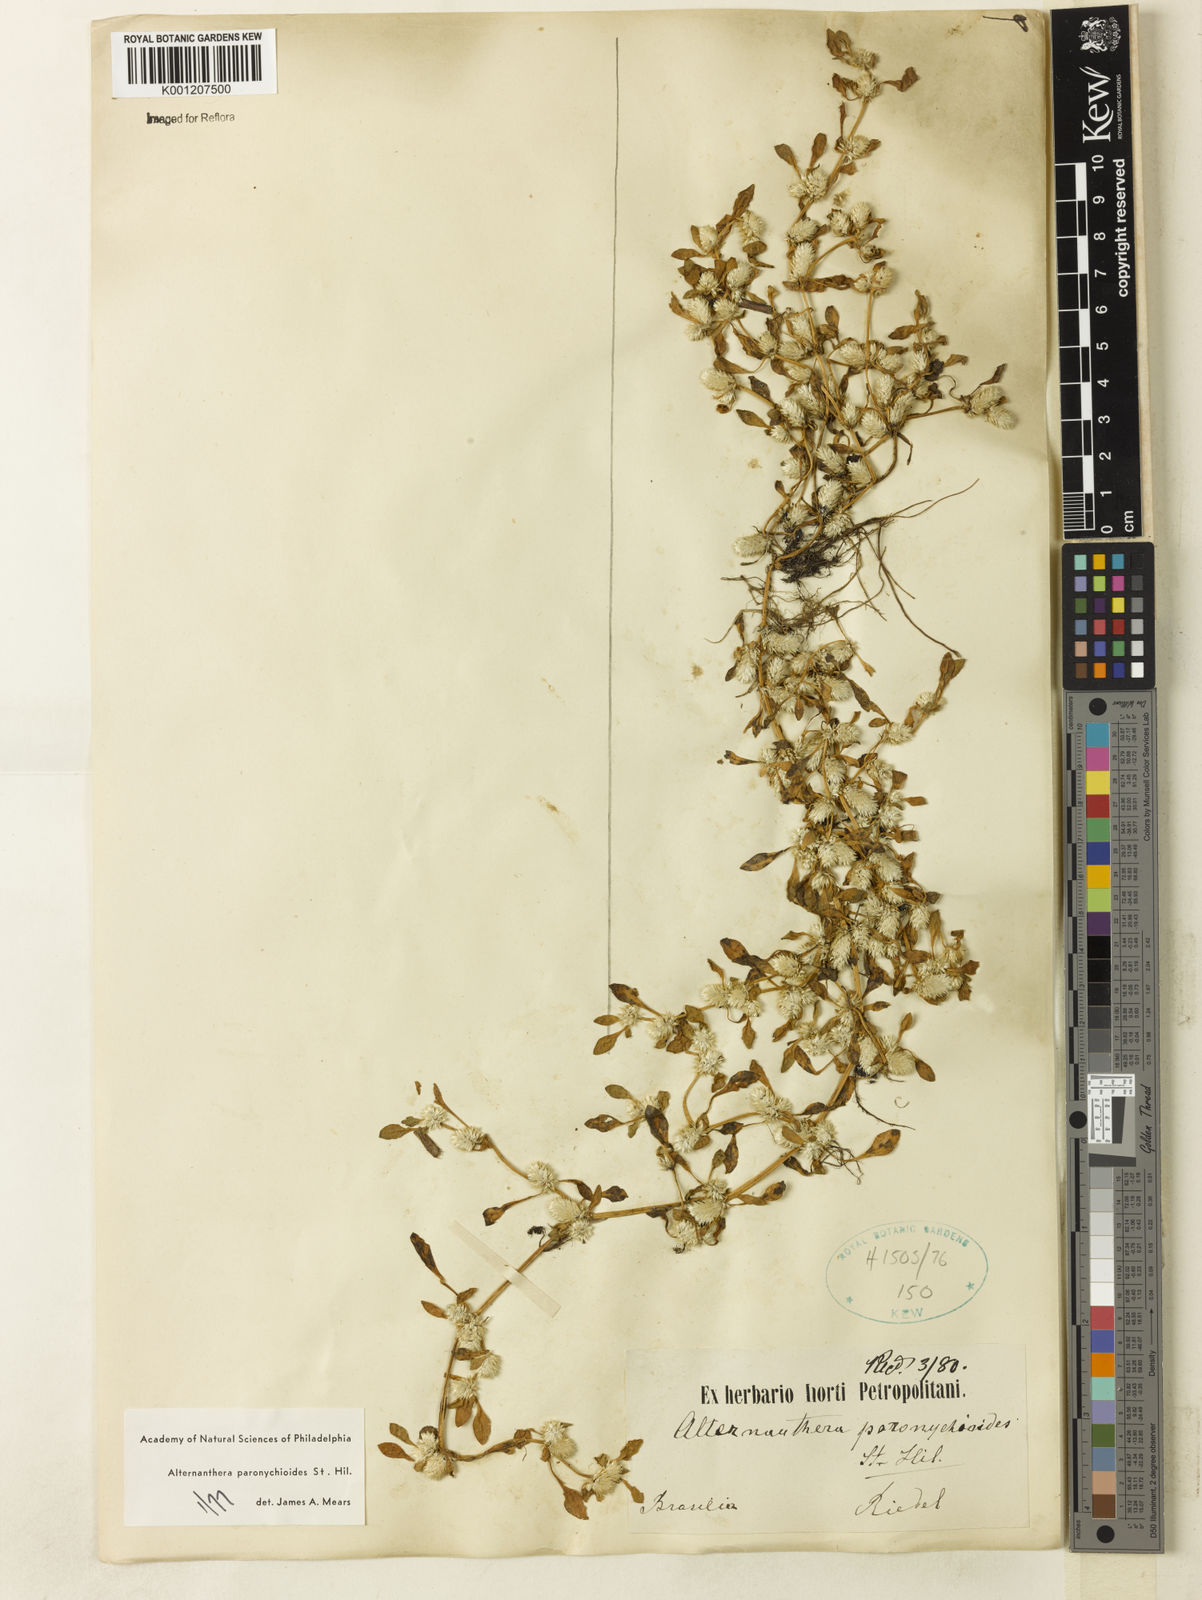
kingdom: Plantae
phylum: Tracheophyta
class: Magnoliopsida
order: Caryophyllales
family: Amaranthaceae
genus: Alternanthera
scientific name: Alternanthera
